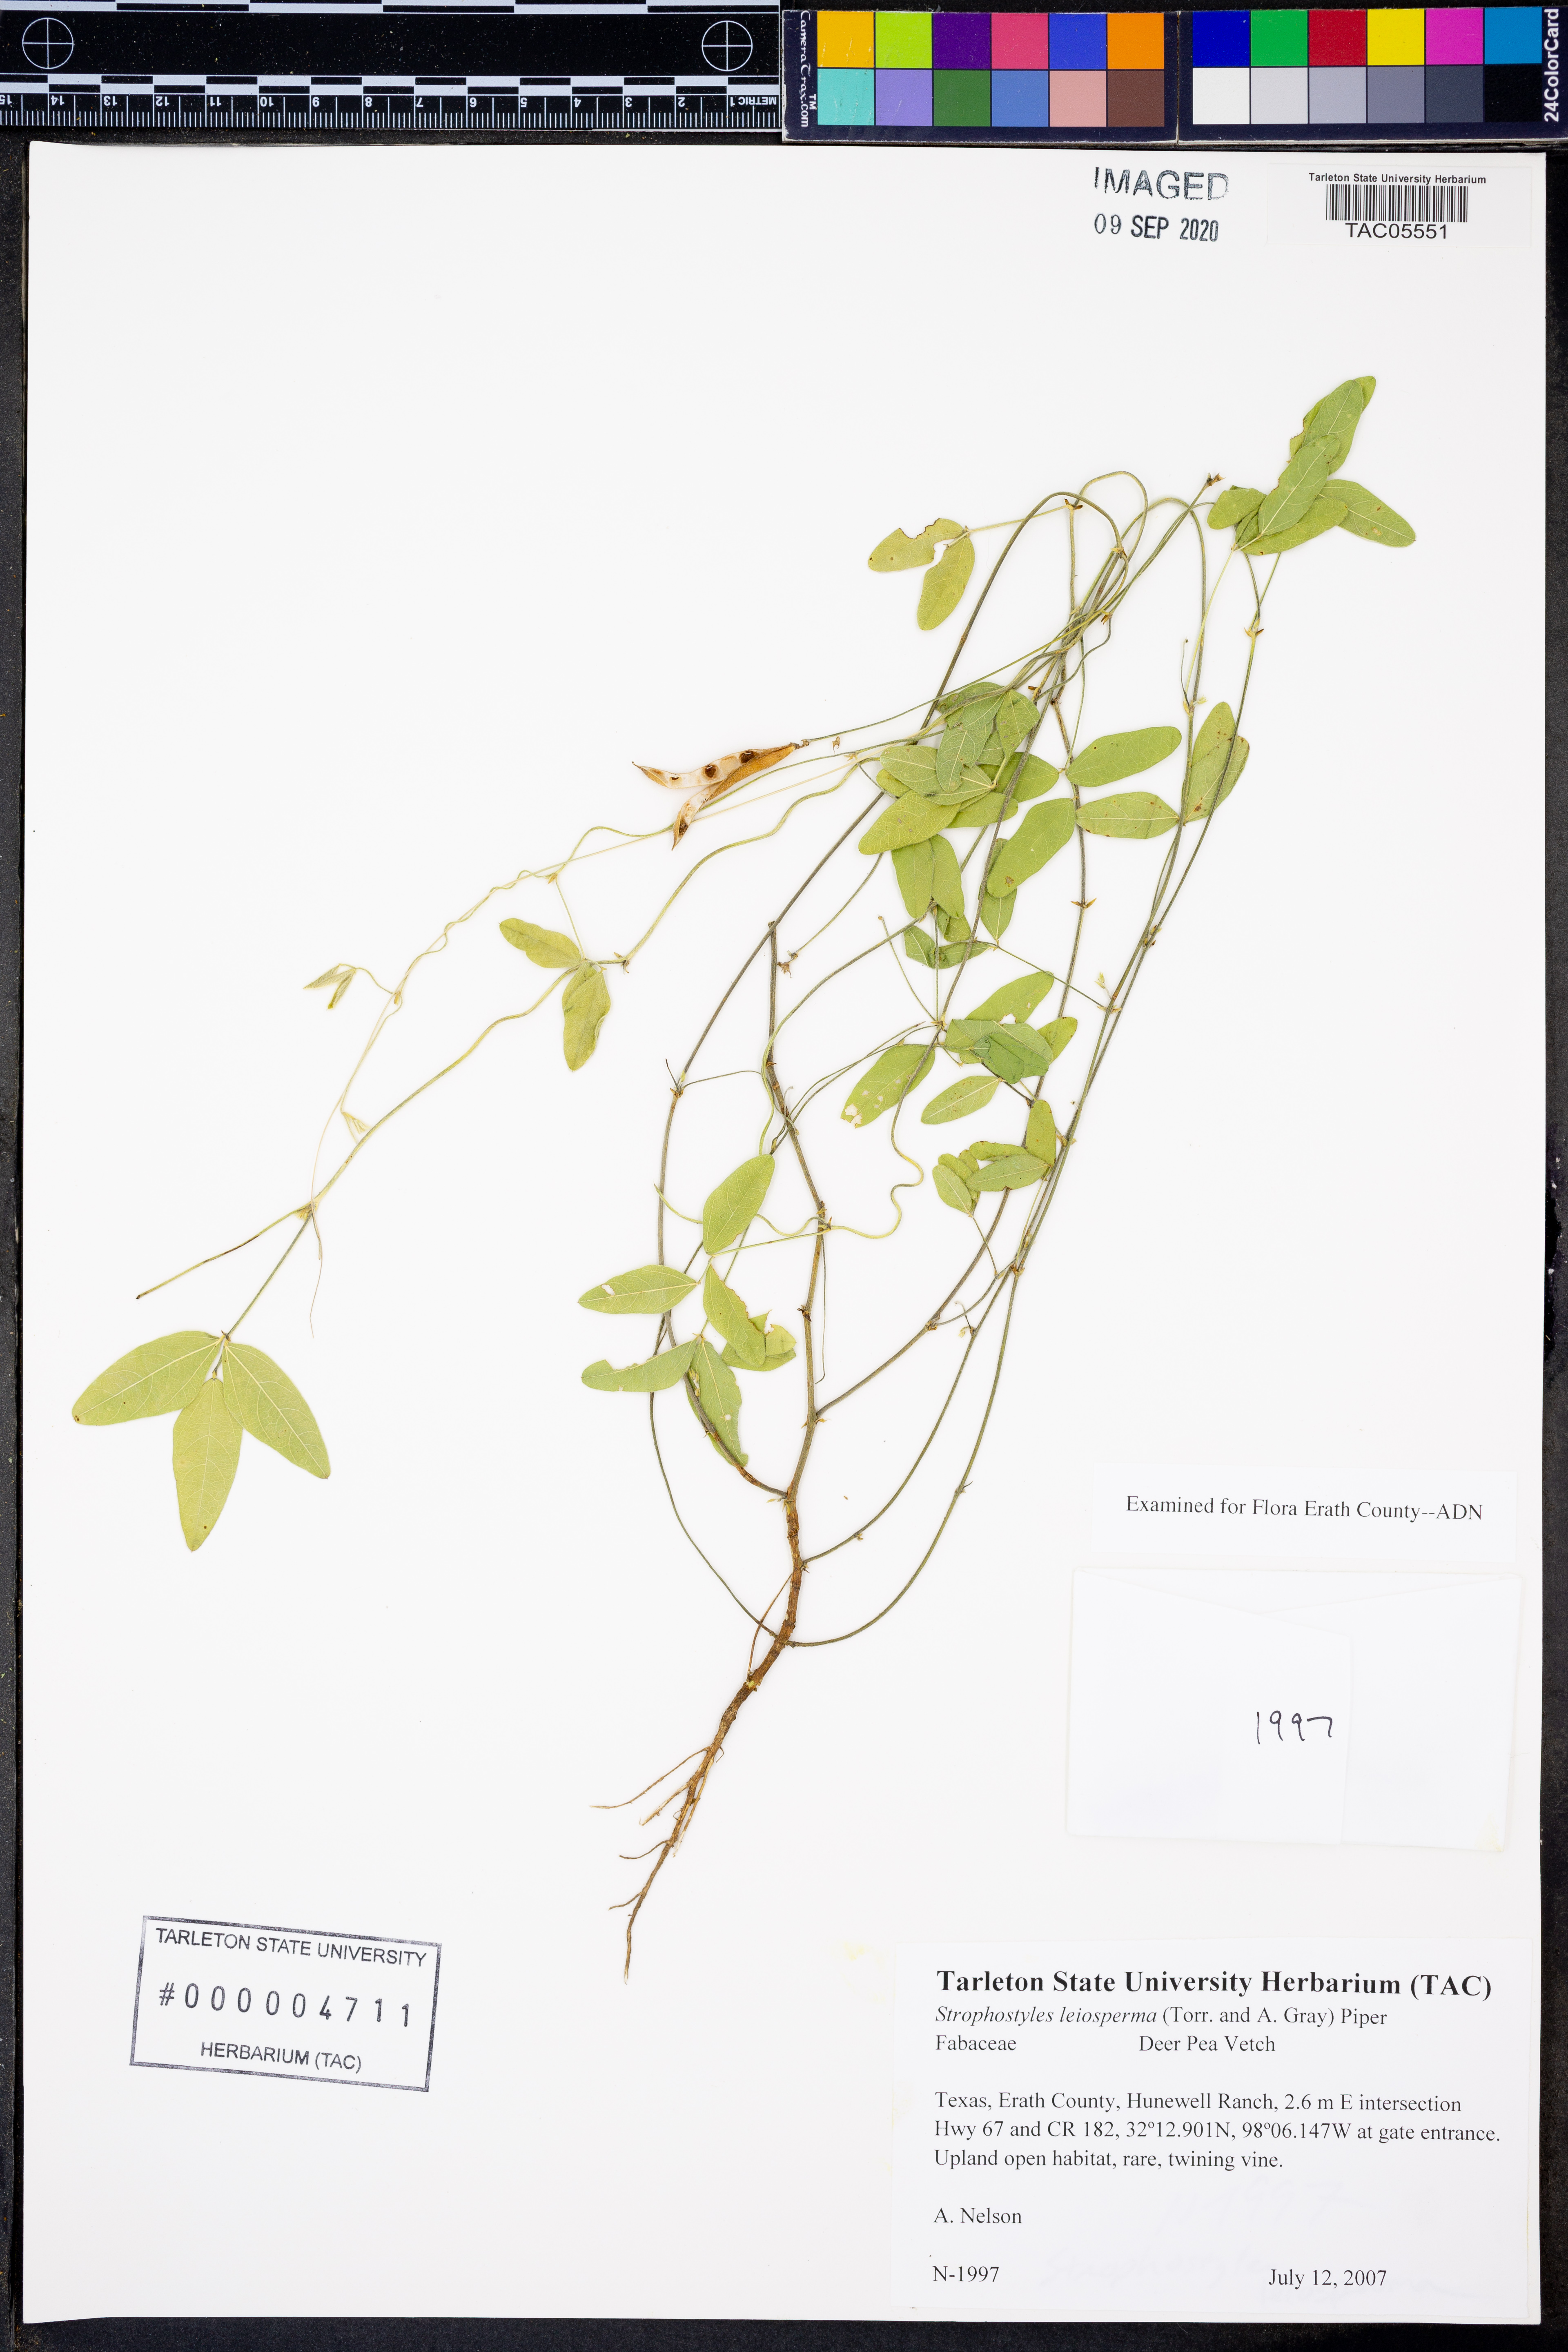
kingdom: Plantae
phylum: Tracheophyta
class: Magnoliopsida
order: Fabales
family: Fabaceae
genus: Strophostyles
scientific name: Strophostyles leiosperma
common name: Smooth-seed wild bean
